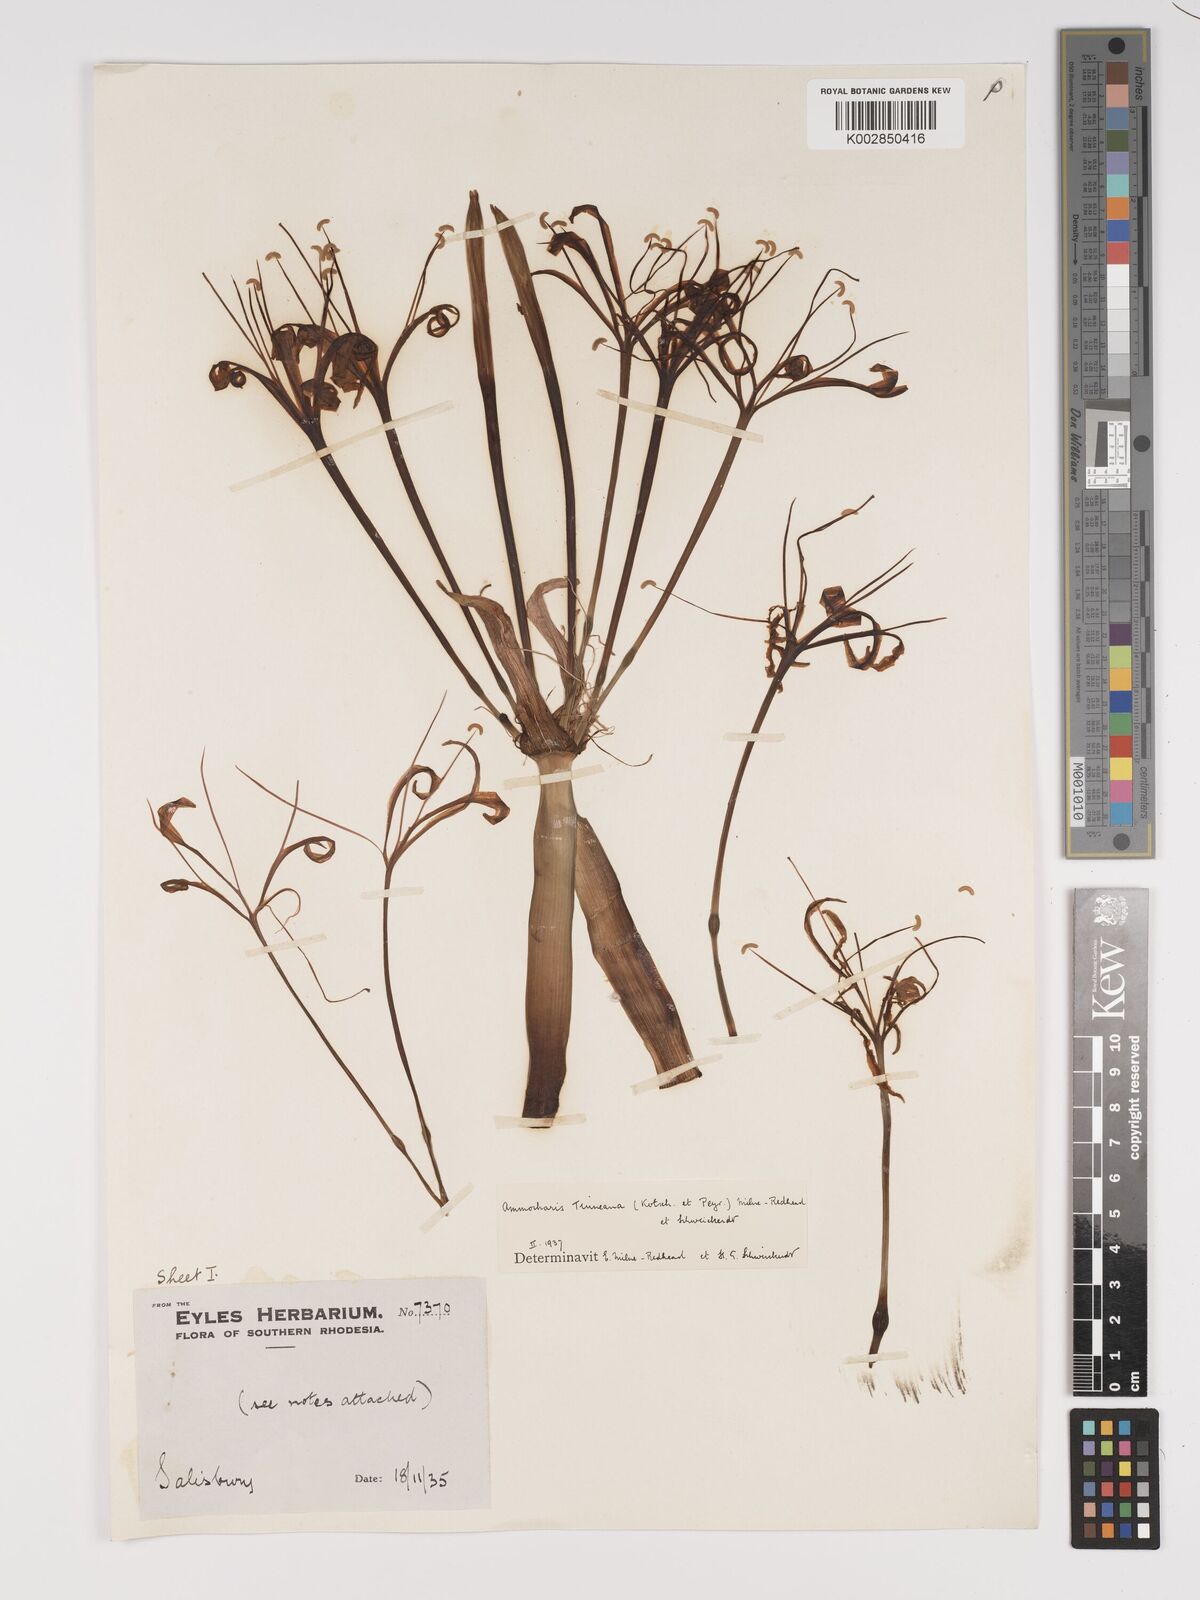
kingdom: Plantae
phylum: Tracheophyta
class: Liliopsida
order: Asparagales
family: Amaryllidaceae
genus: Ammocharis
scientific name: Ammocharis tinneana
